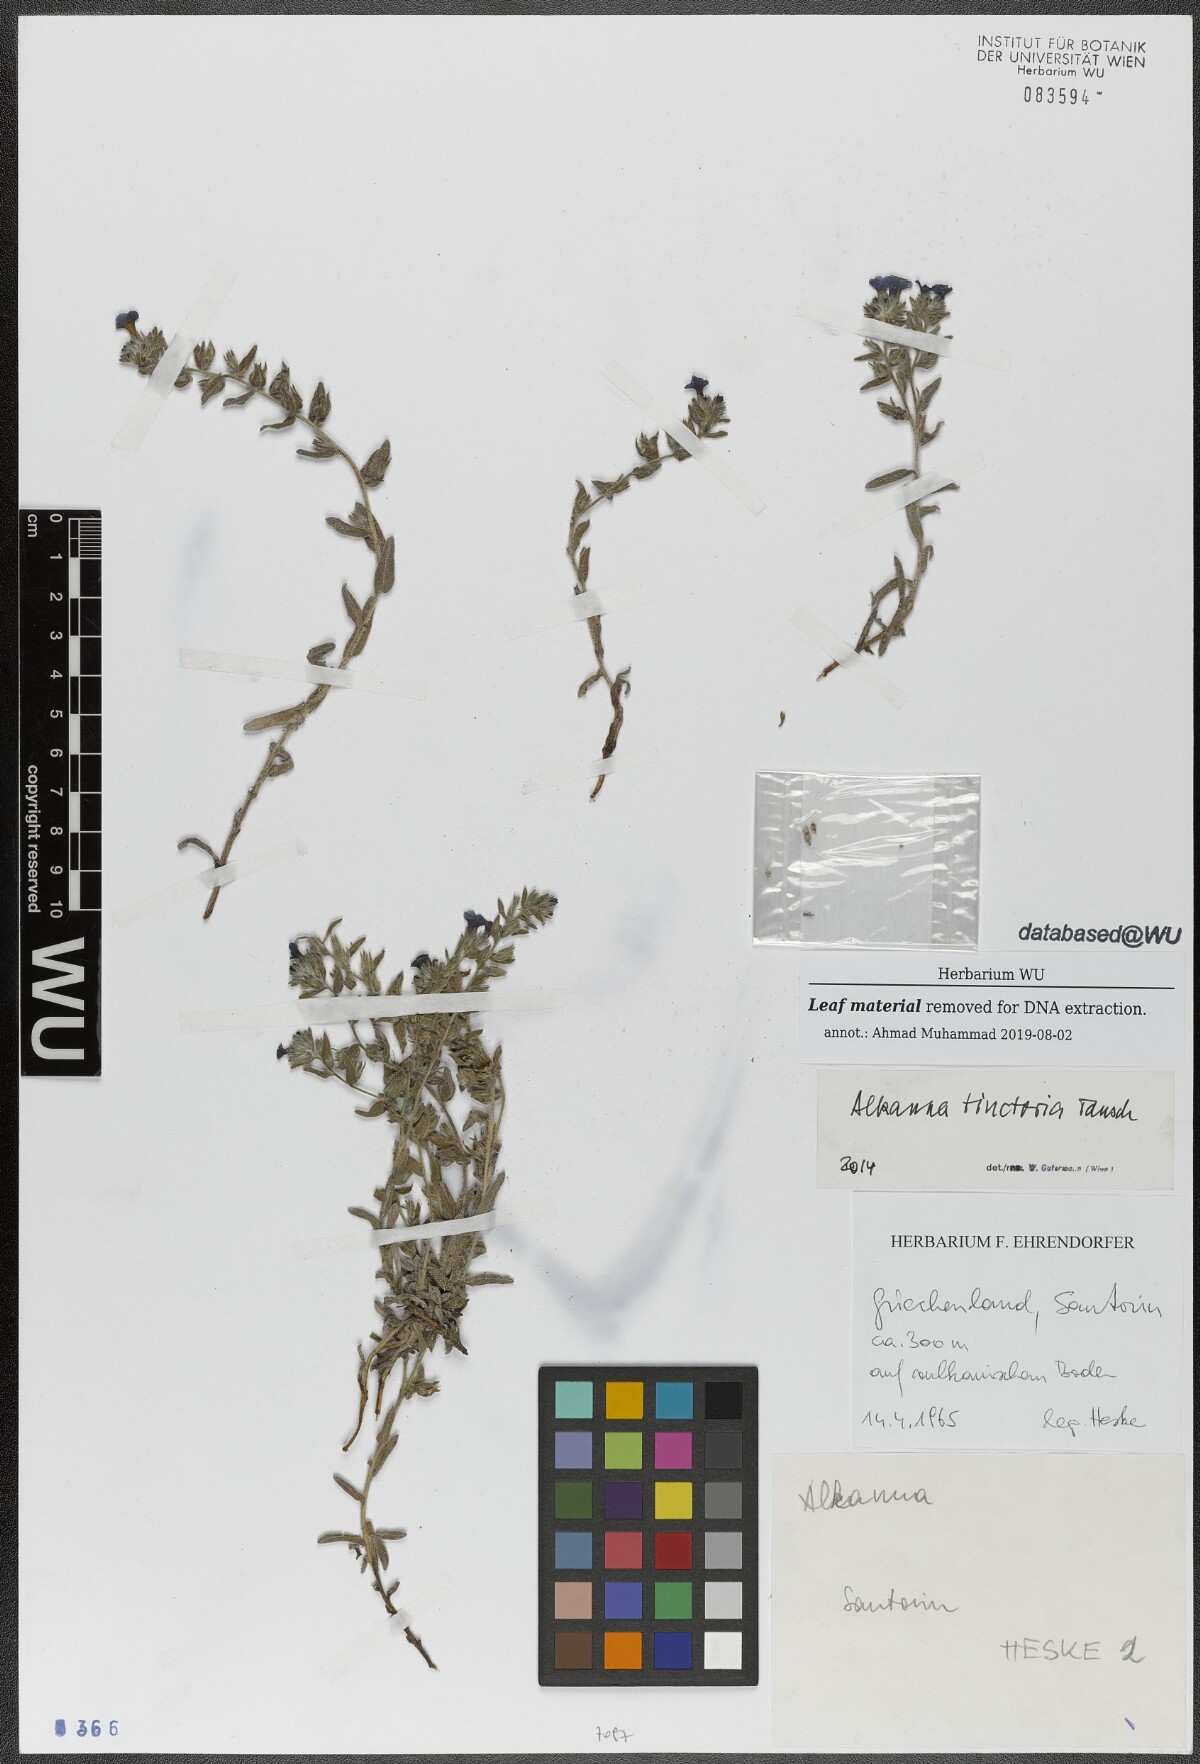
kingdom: Plantae
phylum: Tracheophyta
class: Magnoliopsida
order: Boraginales
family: Boraginaceae
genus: Alkanna
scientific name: Alkanna tinctoria
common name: Dyer's-alkanet
